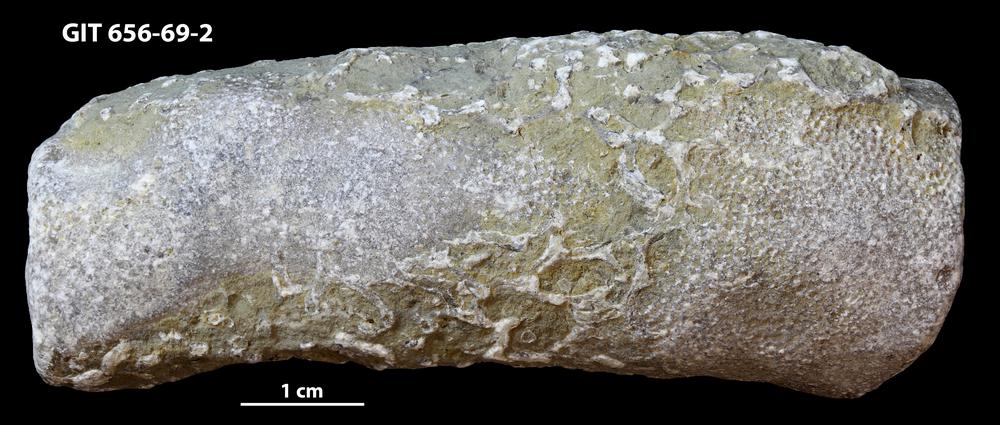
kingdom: Animalia
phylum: Cnidaria
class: Anthozoa
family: Auloporidae
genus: Aulopora
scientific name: Aulopora
